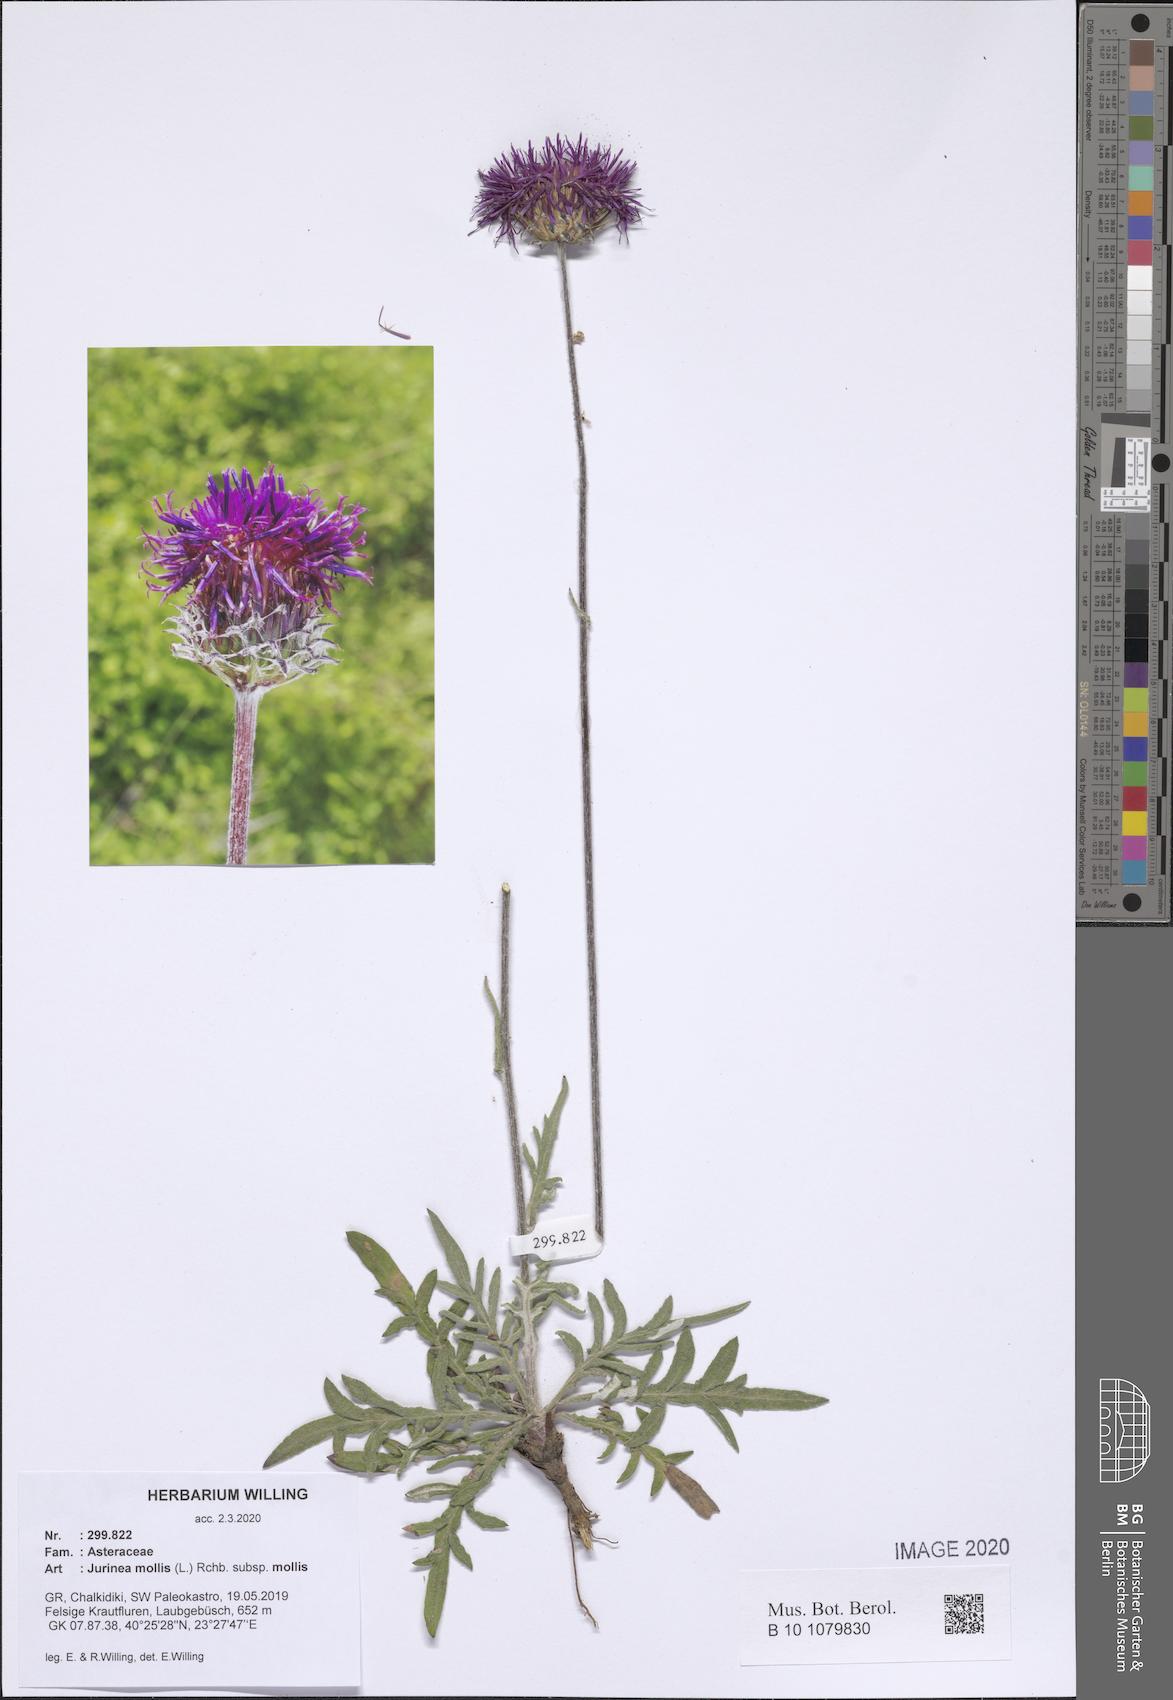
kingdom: Plantae
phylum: Tracheophyta
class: Magnoliopsida
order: Asterales
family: Asteraceae
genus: Jurinea
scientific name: Jurinea mollis
